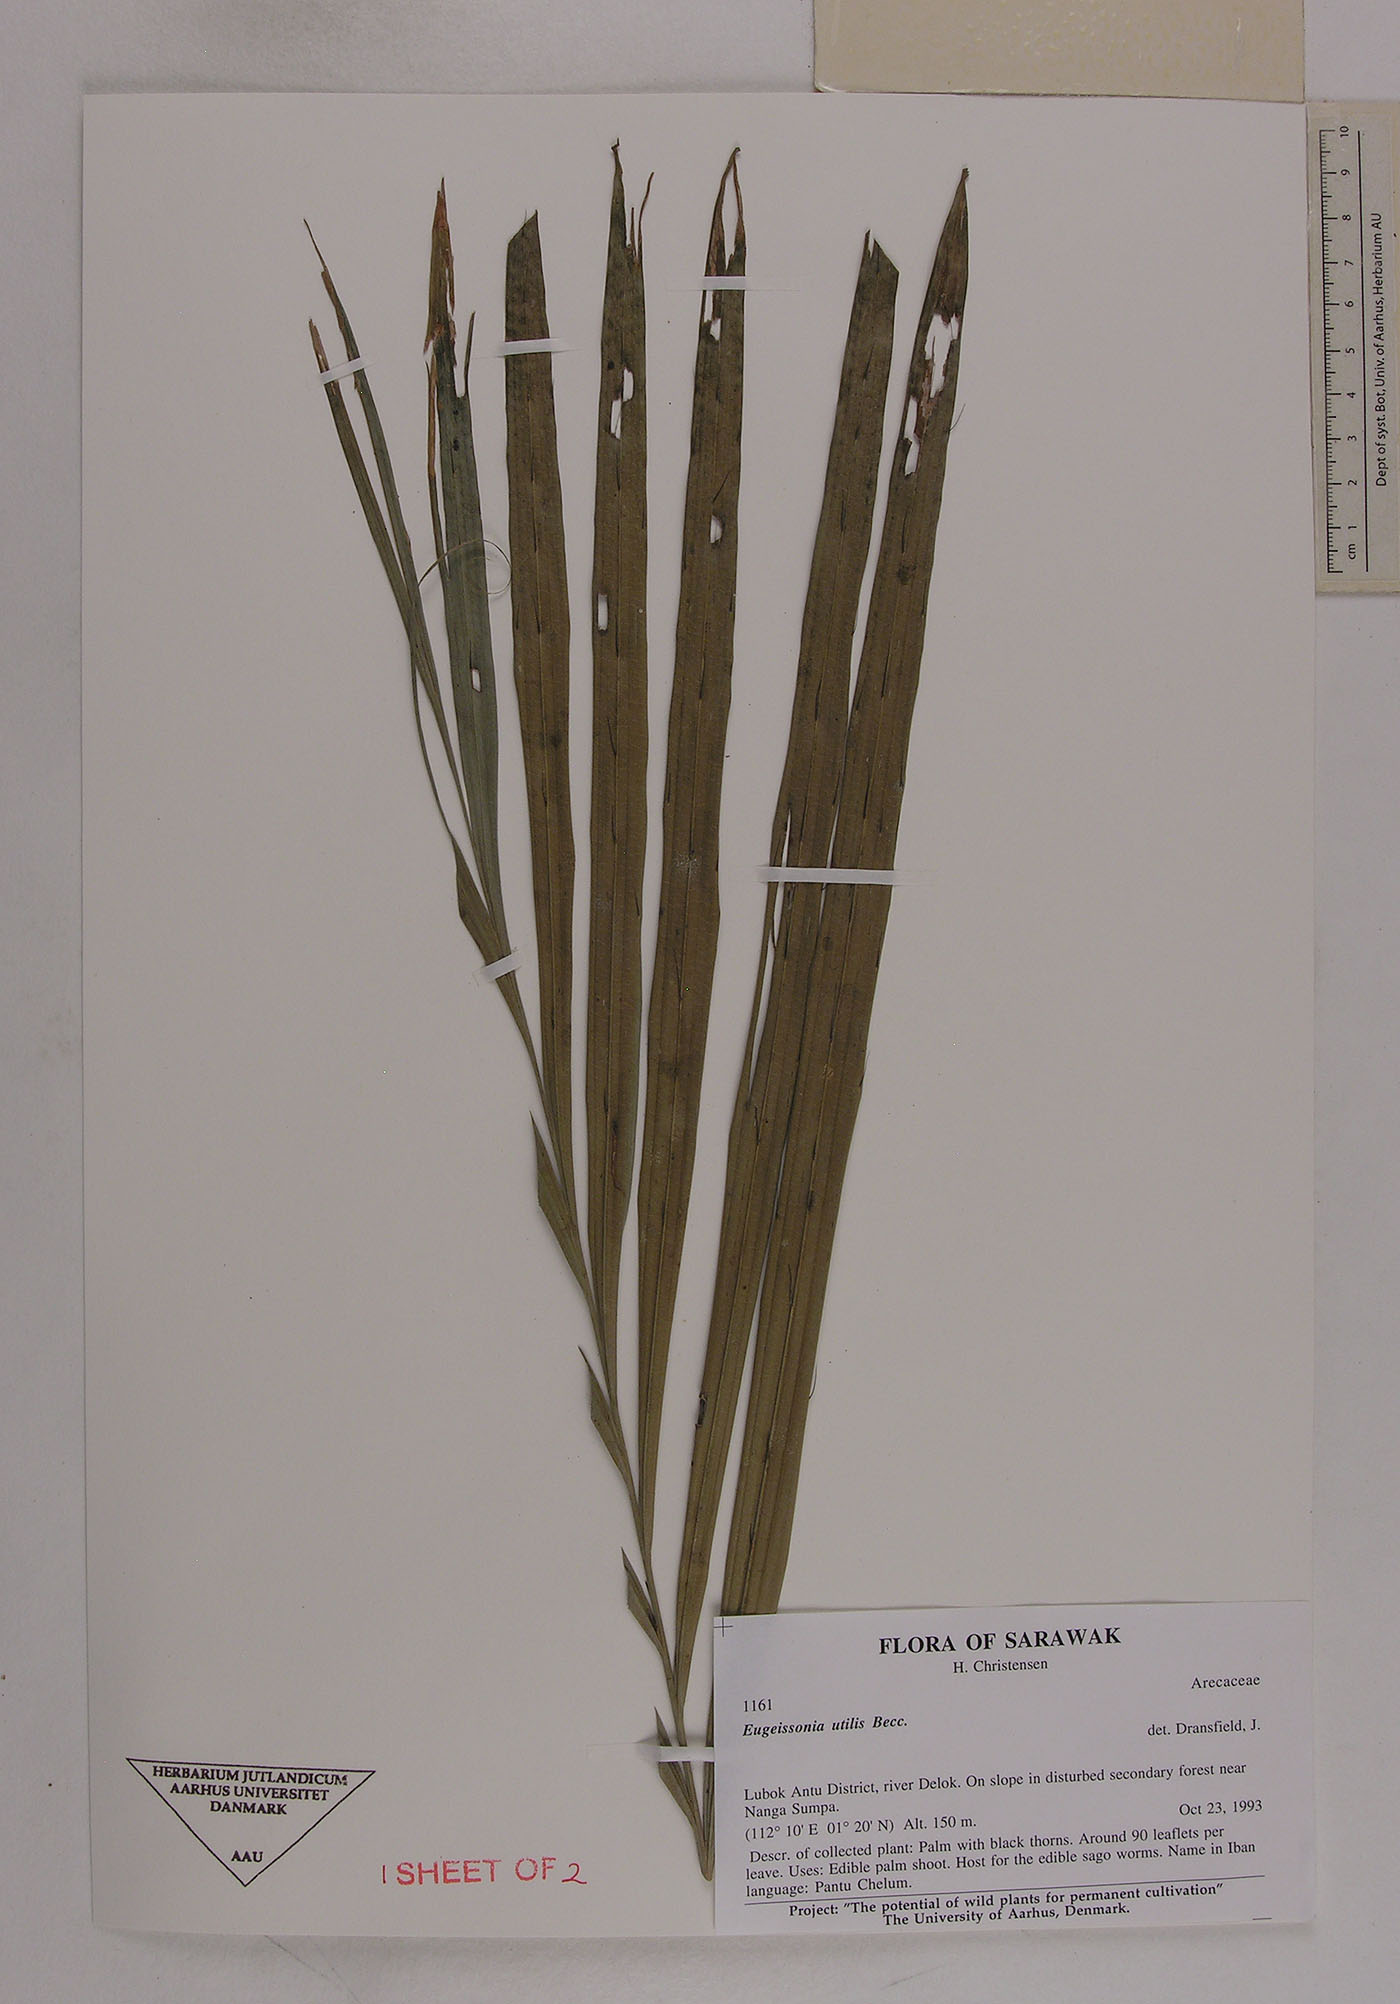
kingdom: Plantae
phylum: Tracheophyta
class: Liliopsida
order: Arecales
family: Arecaceae
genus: Eugeissona
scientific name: Eugeissona utilis
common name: Wild bornean sago palm
